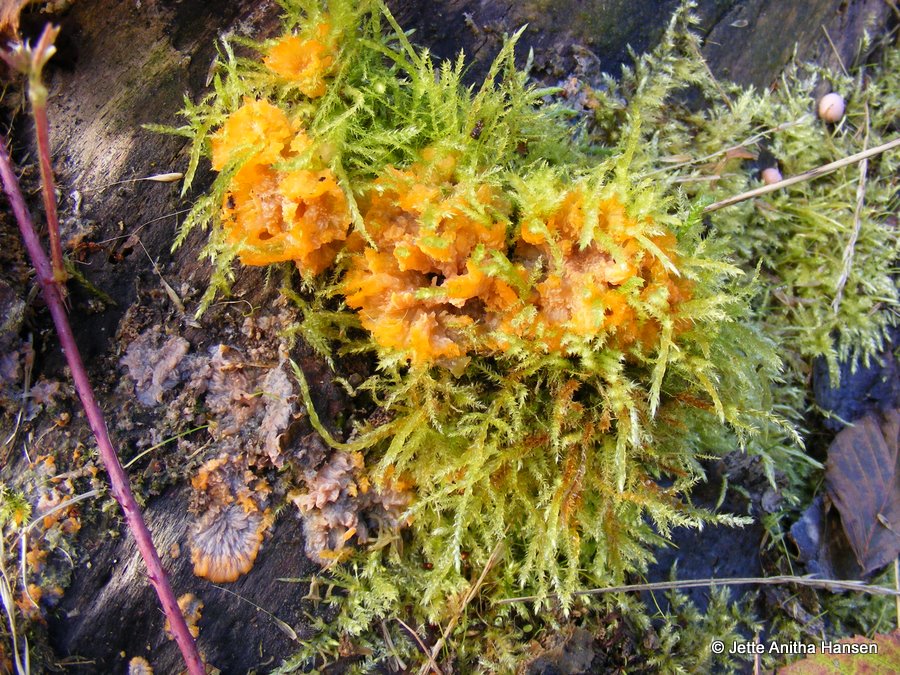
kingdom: Fungi
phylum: Basidiomycota
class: Agaricomycetes
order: Polyporales
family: Meruliaceae
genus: Phlebia
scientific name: Phlebia radiata
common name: stråle-åresvamp
